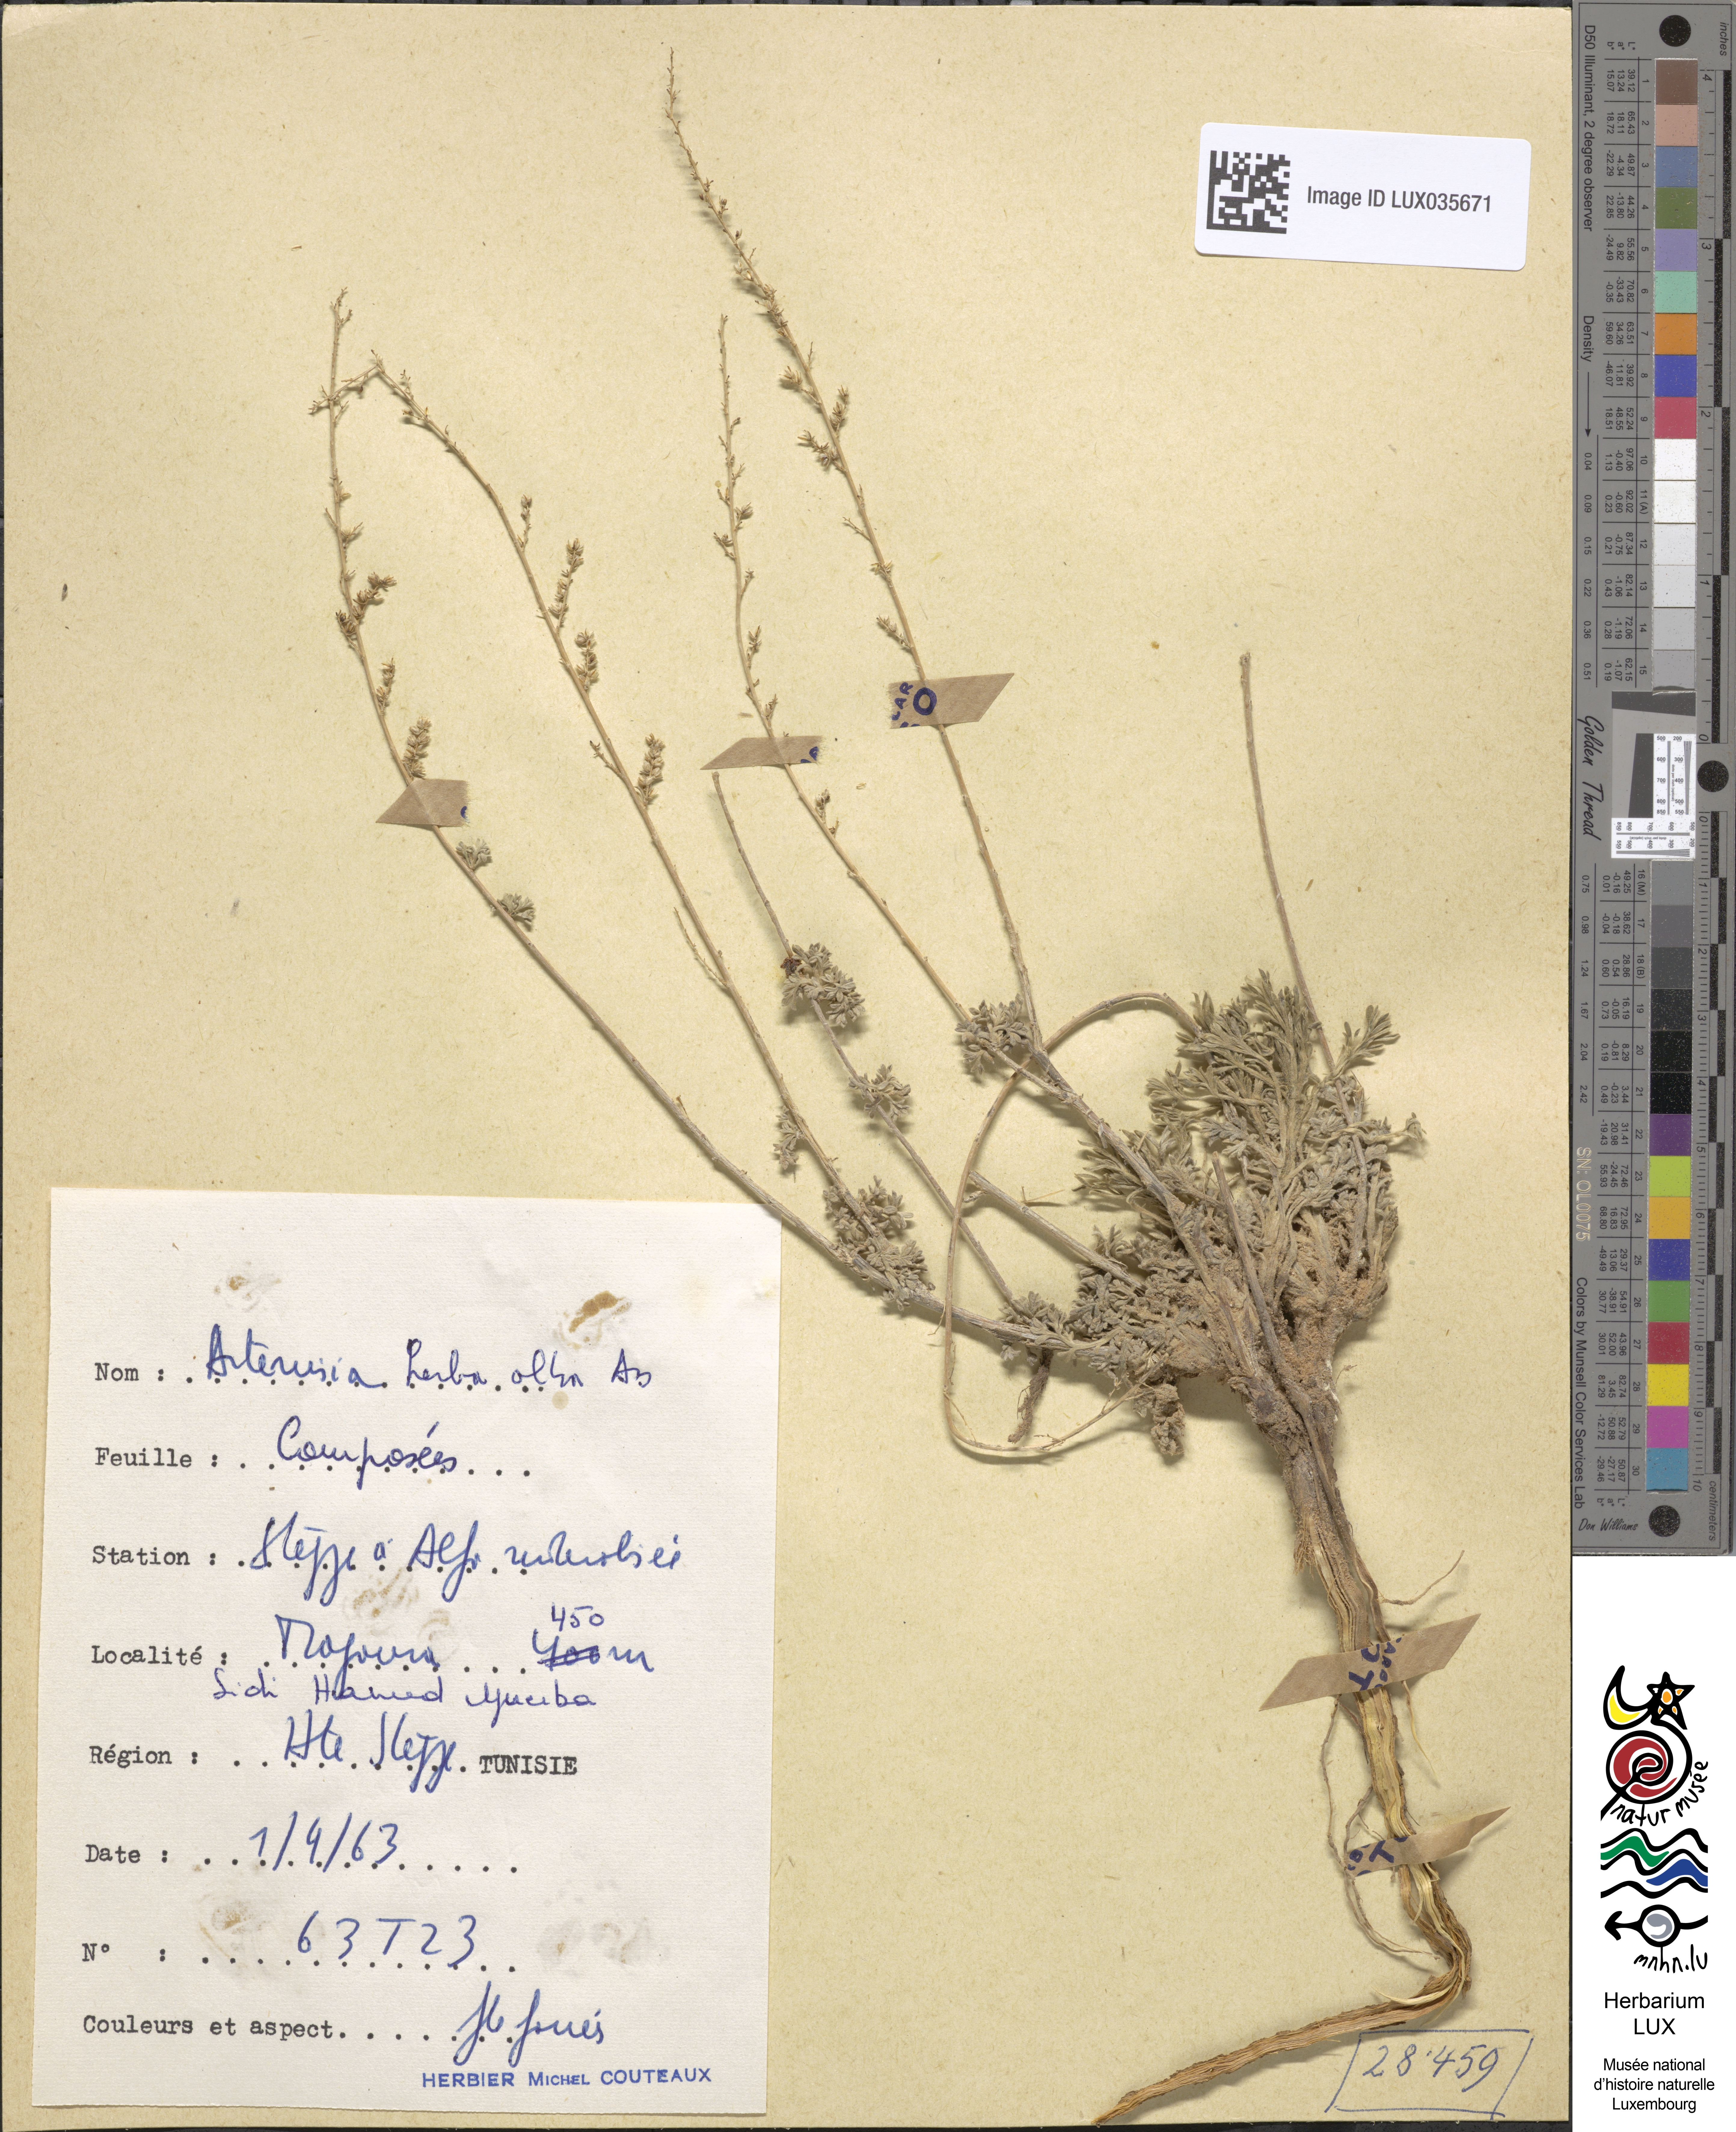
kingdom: Plantae
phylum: Tracheophyta
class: Magnoliopsida
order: Asterales
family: Asteraceae
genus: Artemisia
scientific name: Artemisia herba-alba
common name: White wormwood
